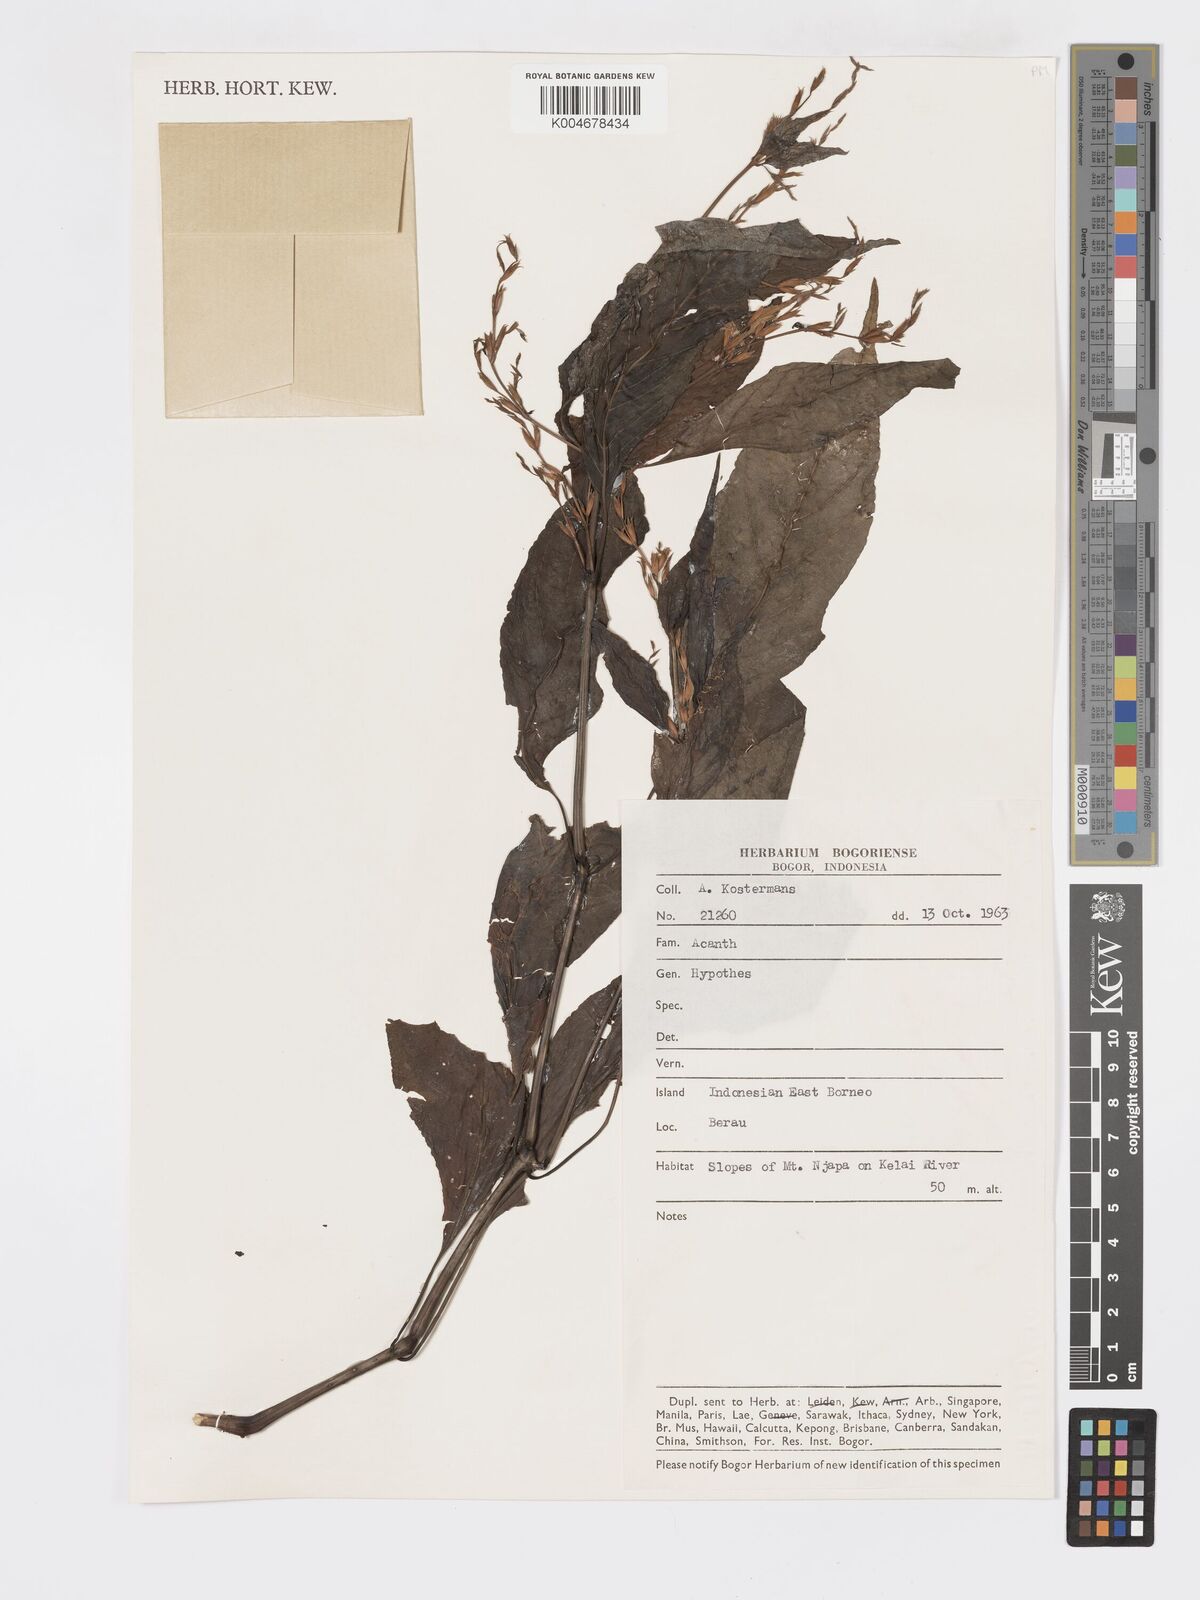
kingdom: Plantae
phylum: Tracheophyta
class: Magnoliopsida
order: Lamiales
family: Acanthaceae
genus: Hypoestes
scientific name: Hypoestes
